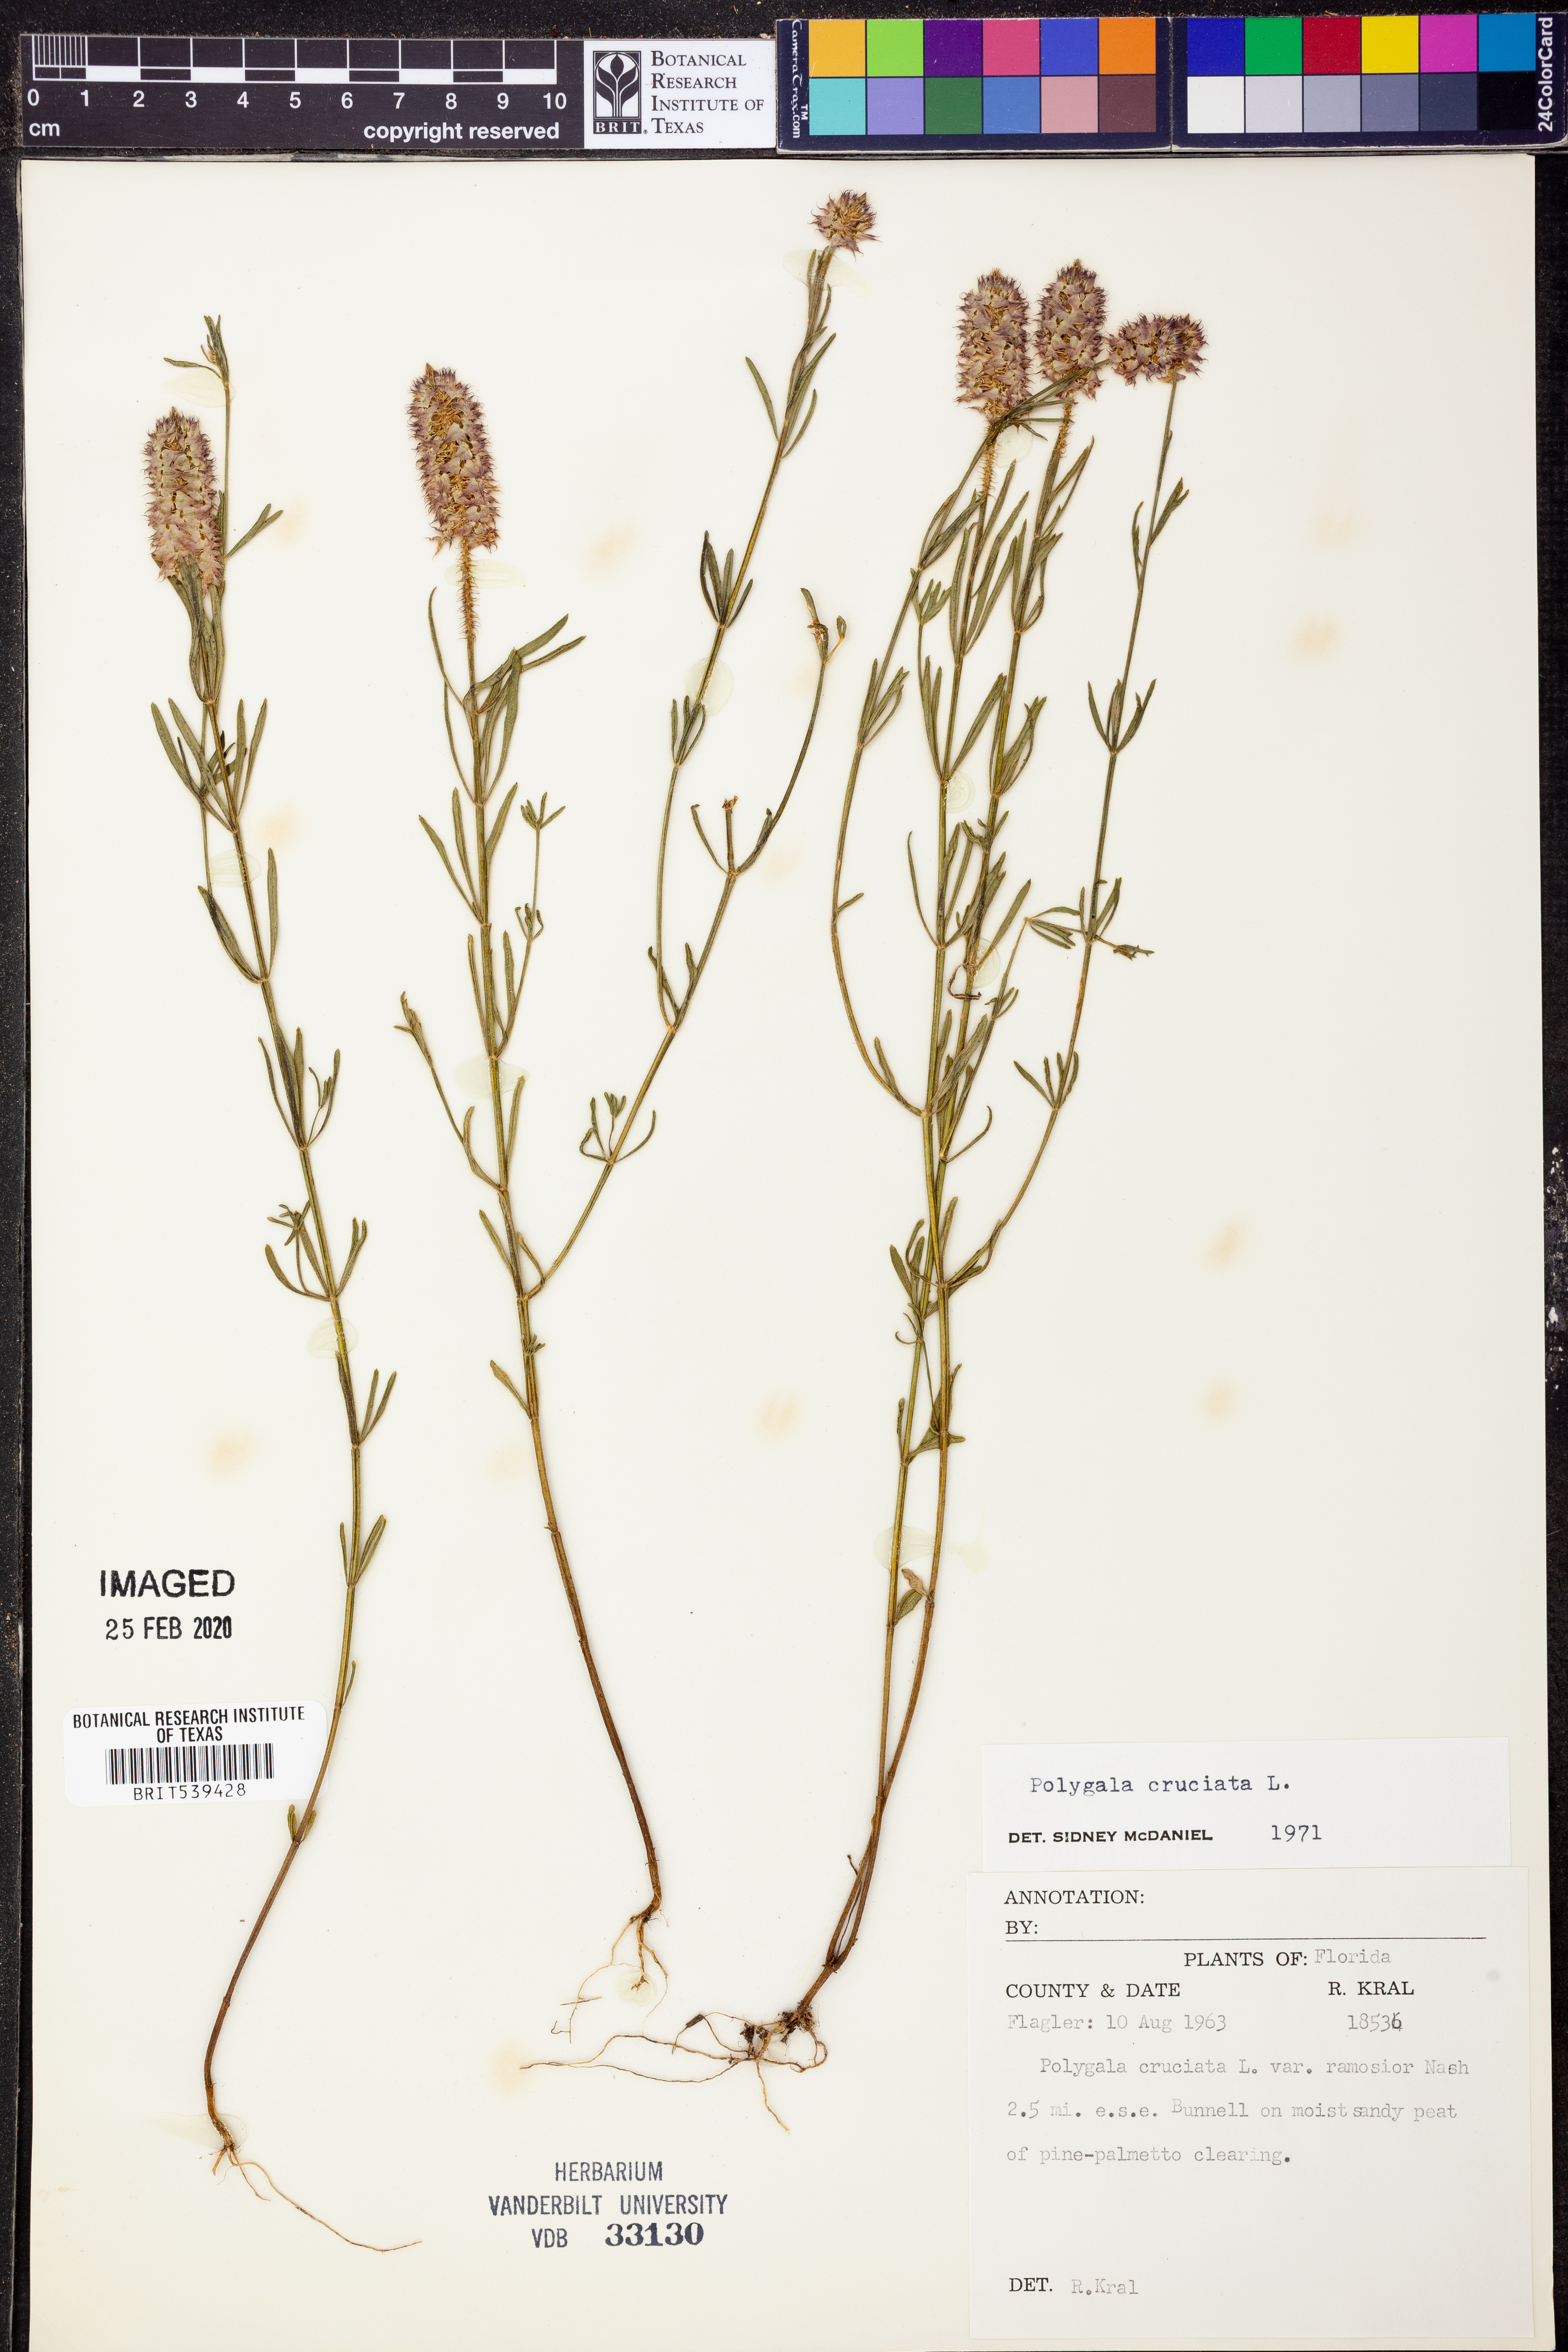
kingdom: Plantae
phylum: Tracheophyta
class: Magnoliopsida
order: Fabales
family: Polygalaceae
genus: Polygala
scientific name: Polygala cruciata
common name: Drumheads
